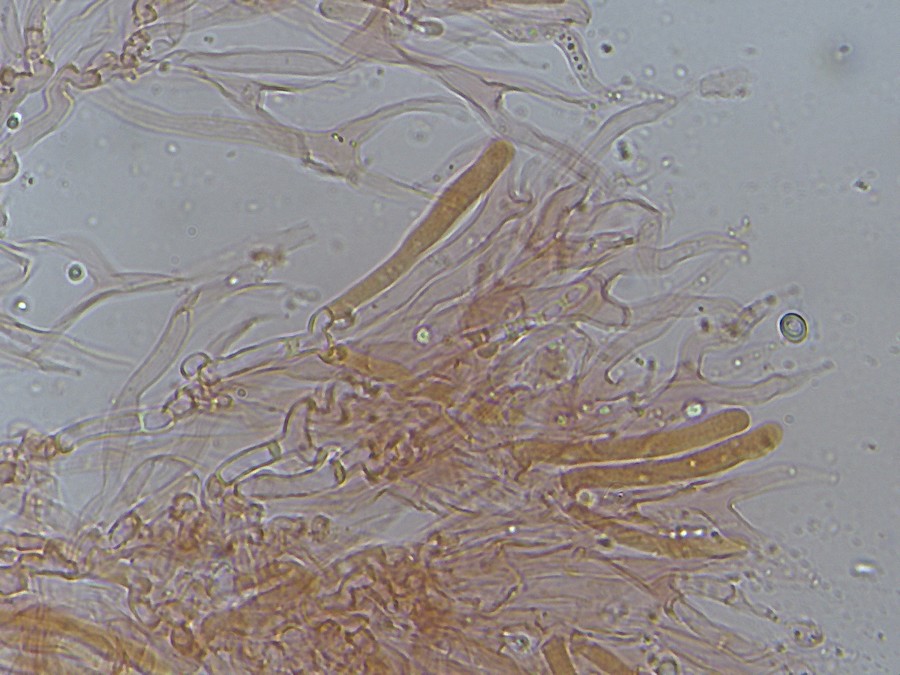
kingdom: Fungi
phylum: Basidiomycota
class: Dacrymycetes
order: Dacrymycetales
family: Cerinomycetaceae
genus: Cerinomyces
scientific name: Cerinomyces lipoferus
